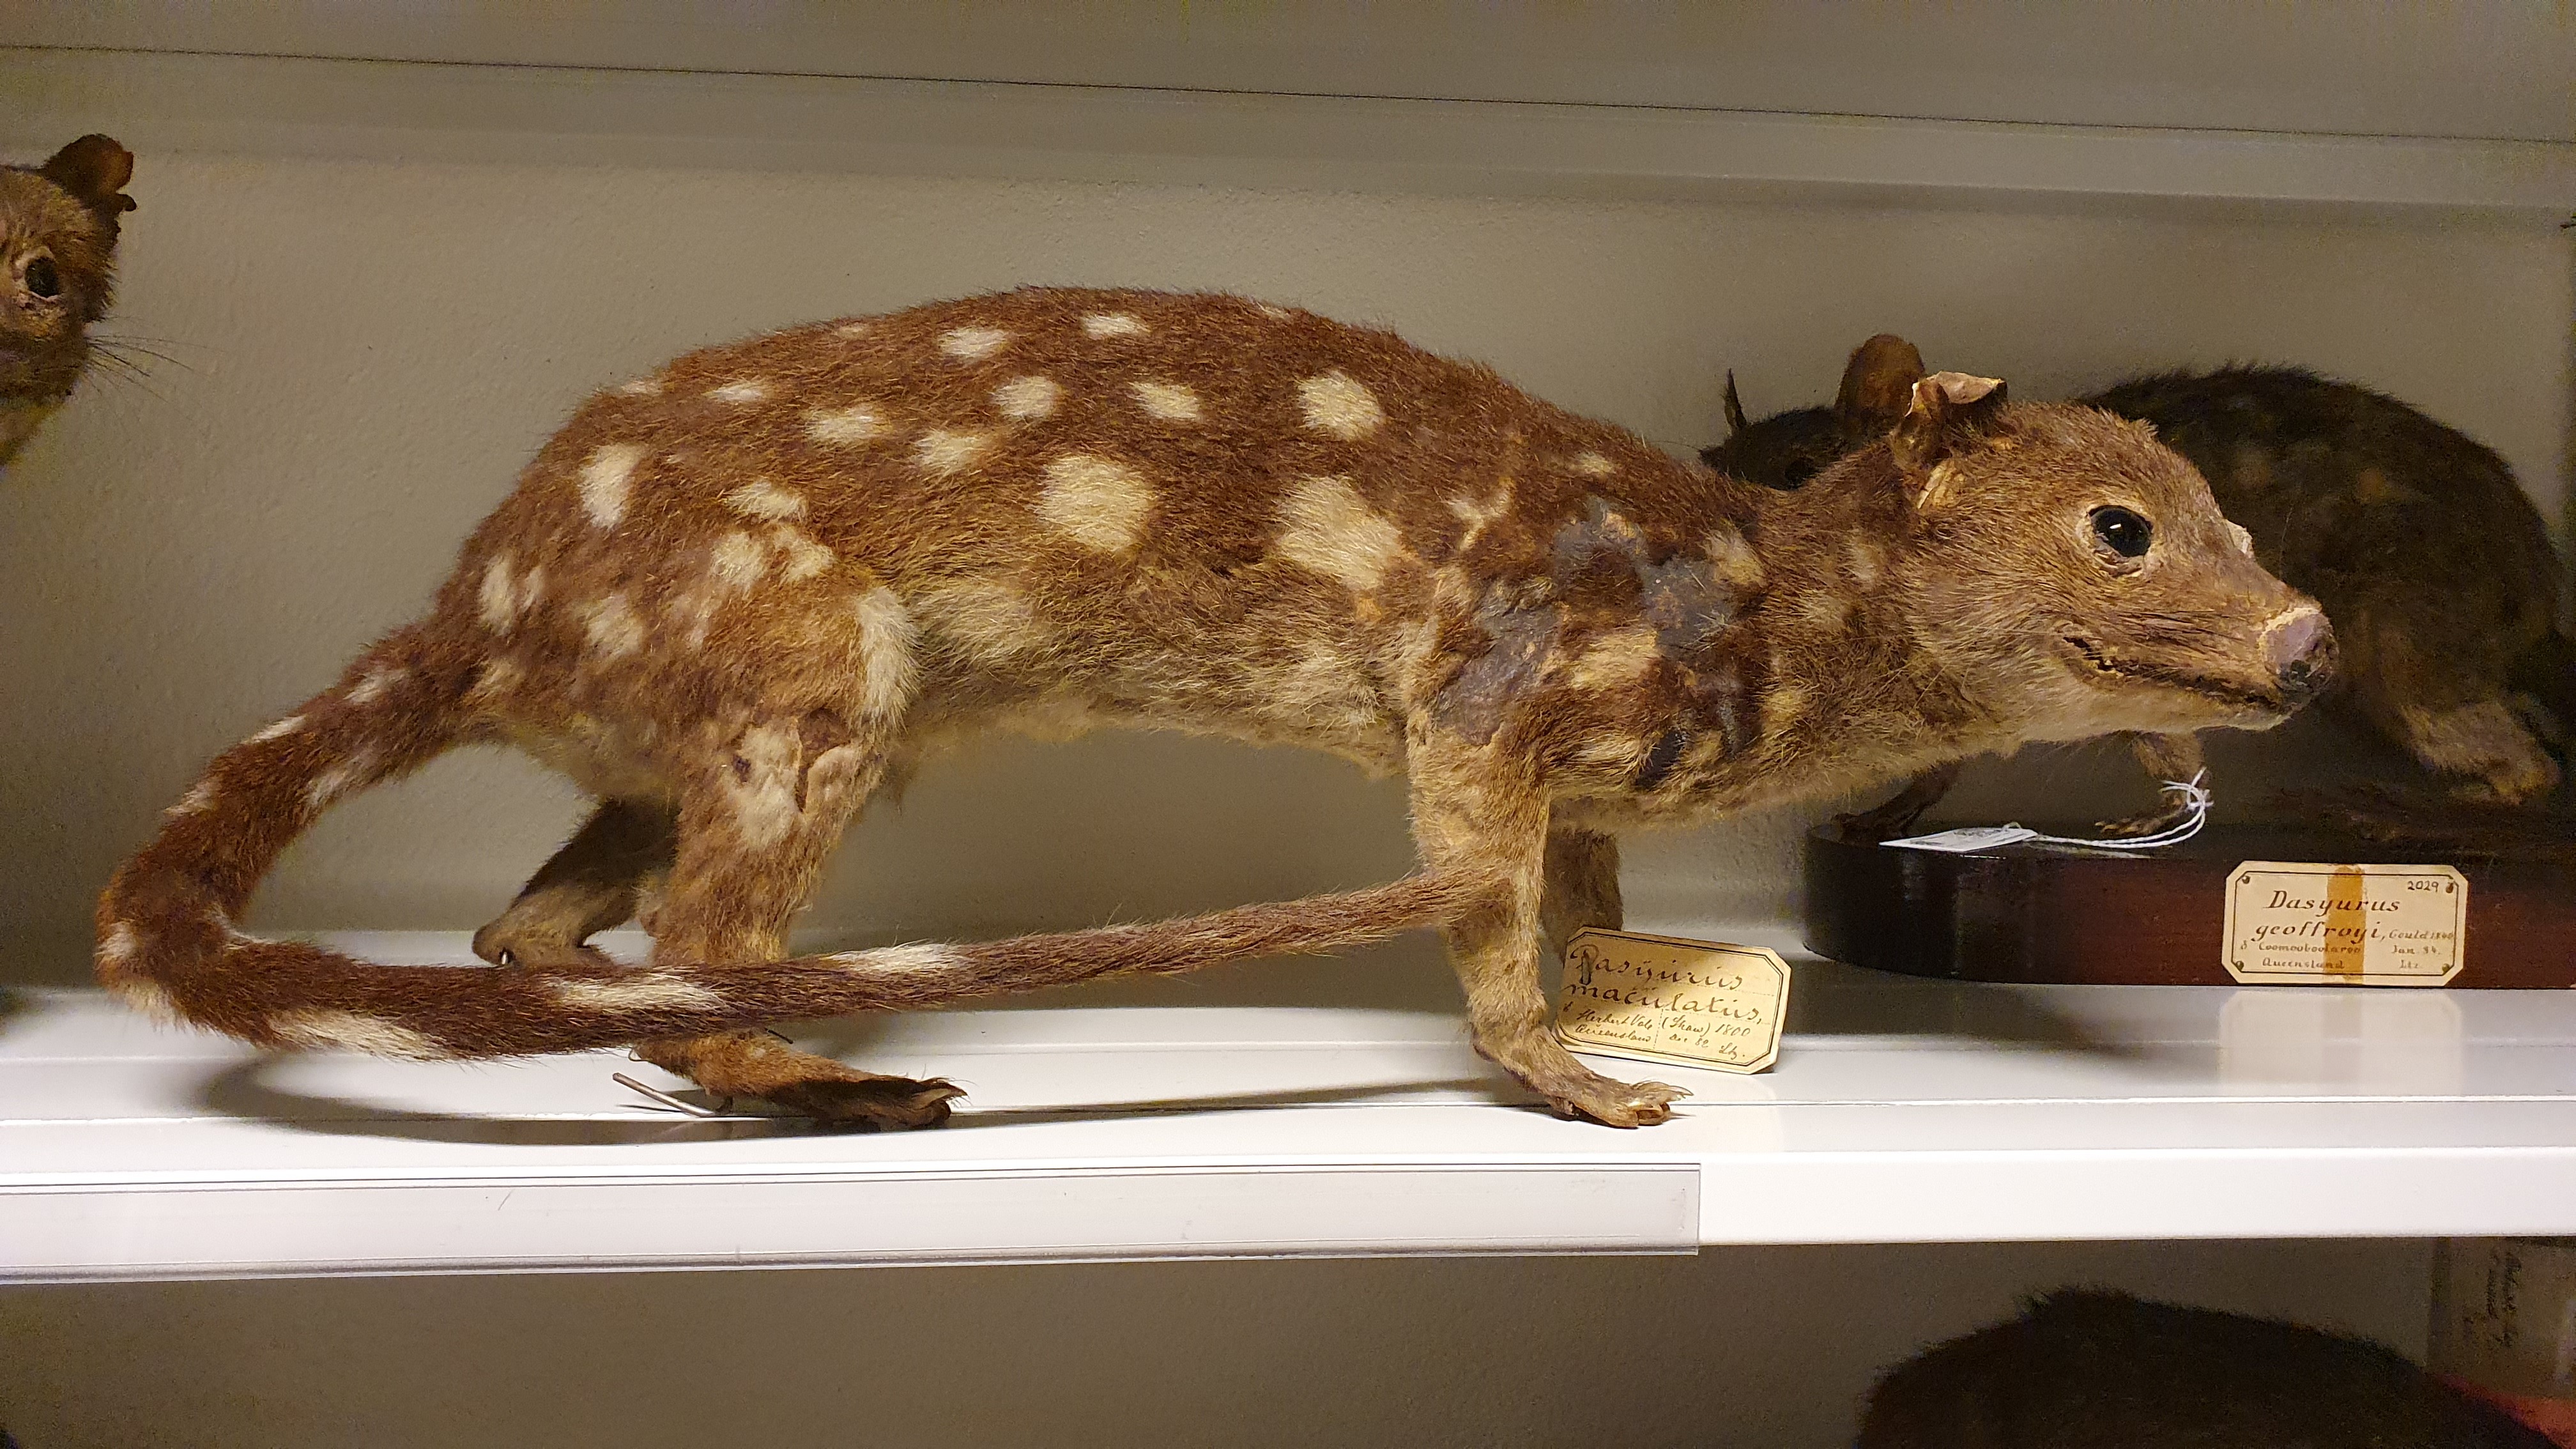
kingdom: Animalia
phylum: Chordata
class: Mammalia
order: Dasyuromorphia
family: Dasyuridae
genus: Dasyurus
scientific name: Dasyurus maculatus
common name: Tiger quoll
